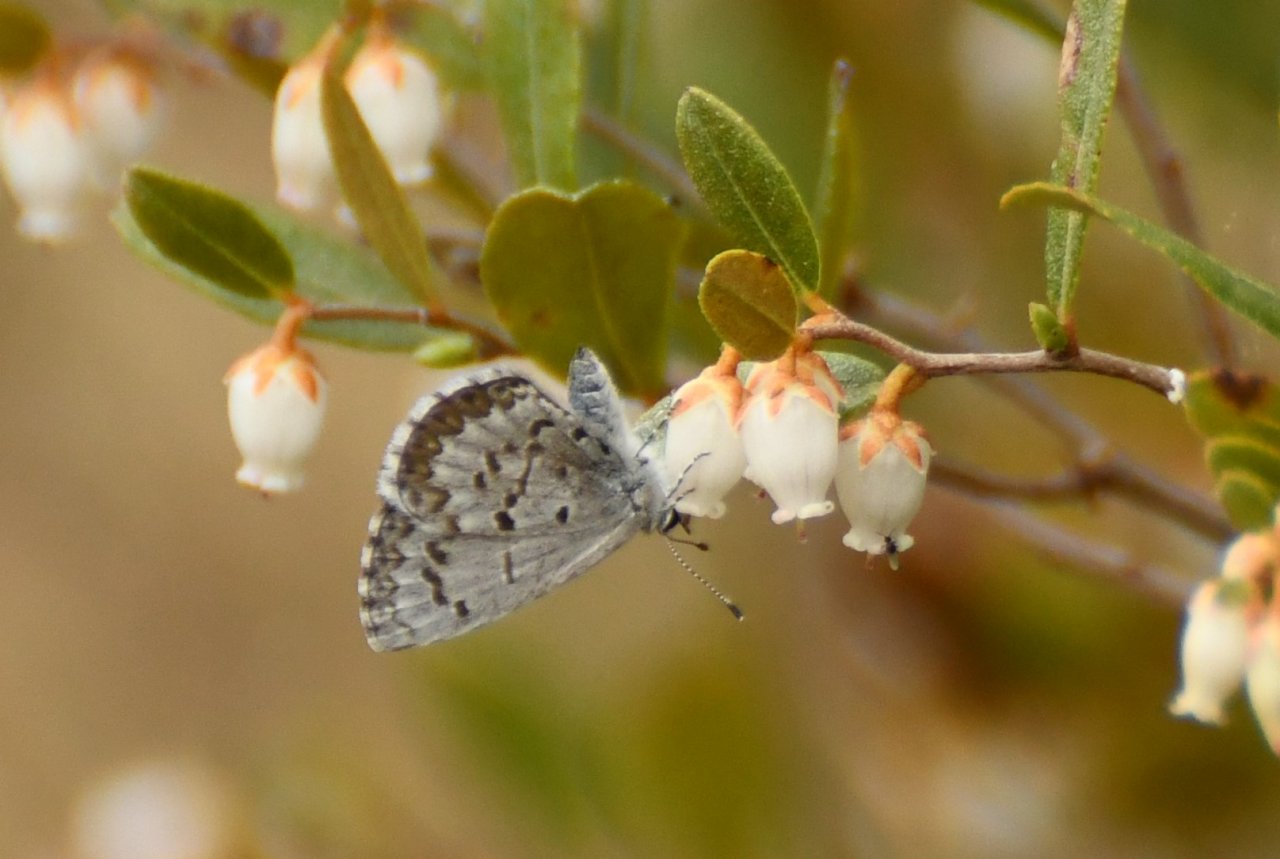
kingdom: Animalia
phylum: Arthropoda
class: Insecta
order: Lepidoptera
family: Lycaenidae
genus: Celastrina
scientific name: Celastrina lucia
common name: Northern Spring Azure
